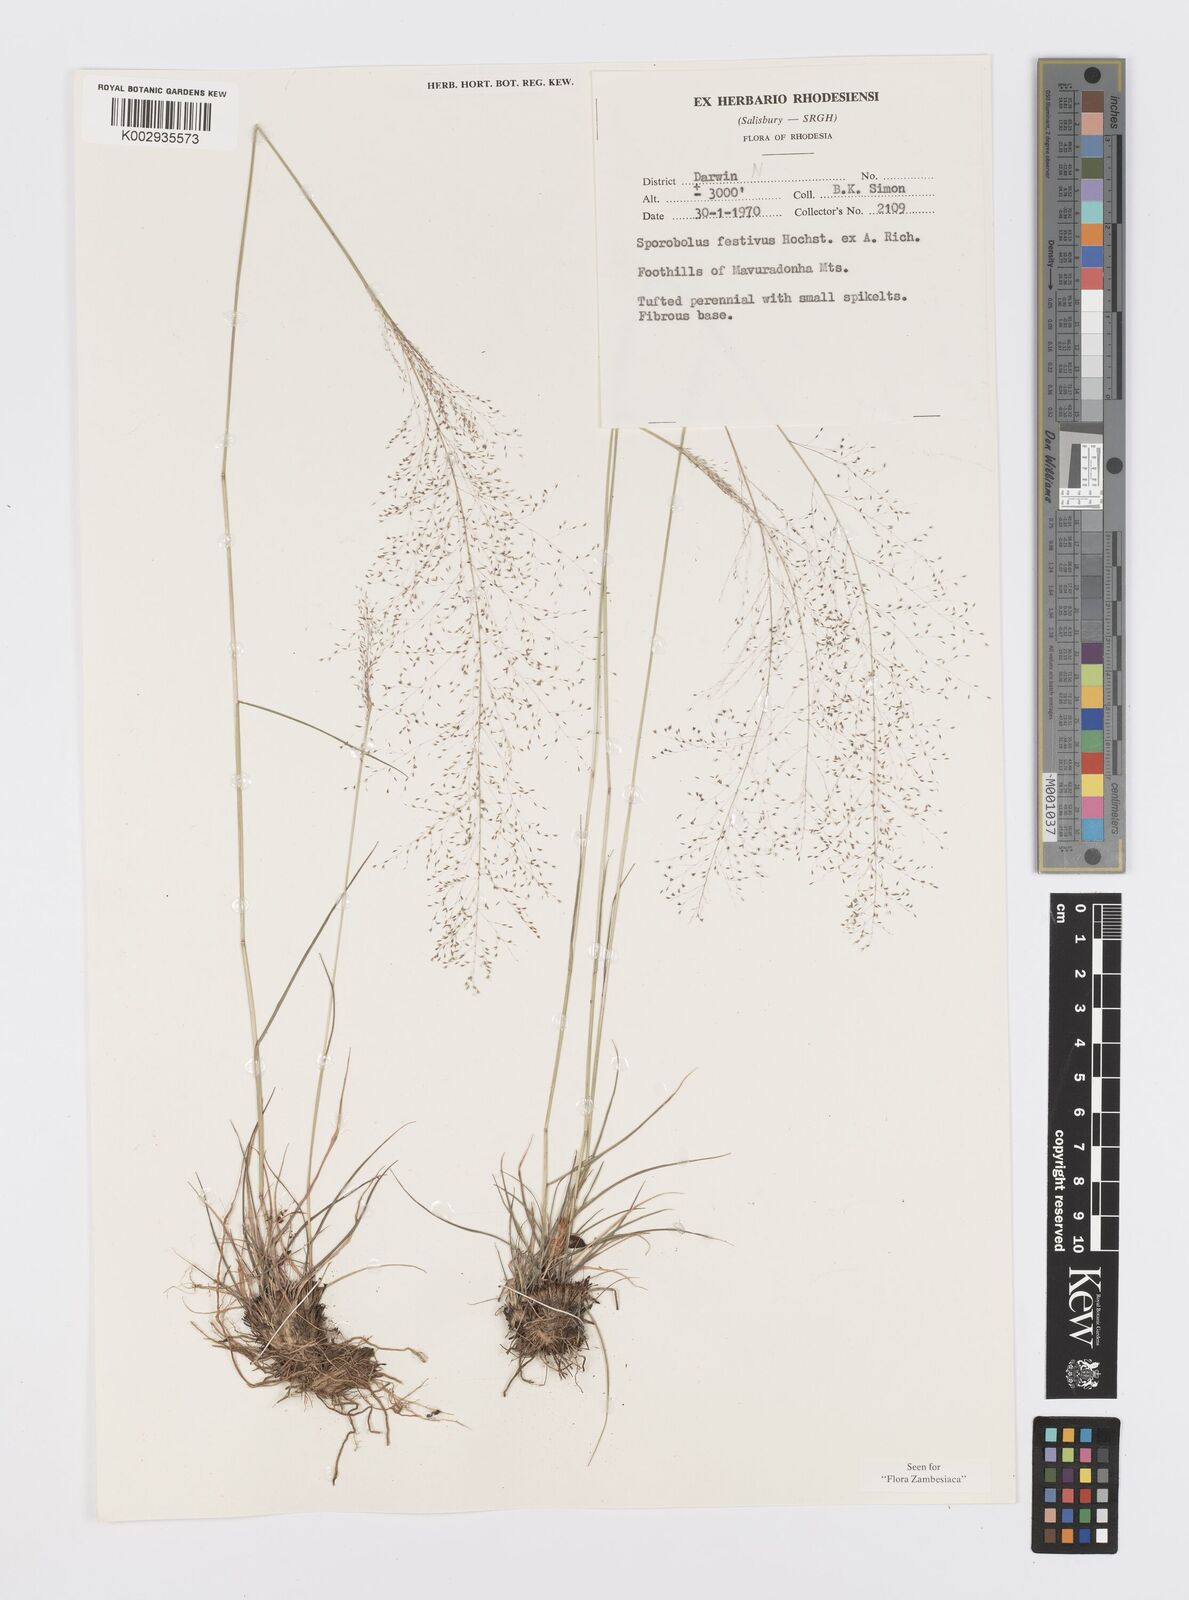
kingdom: Plantae
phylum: Tracheophyta
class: Liliopsida
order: Poales
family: Poaceae
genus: Sporobolus
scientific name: Sporobolus festivus
